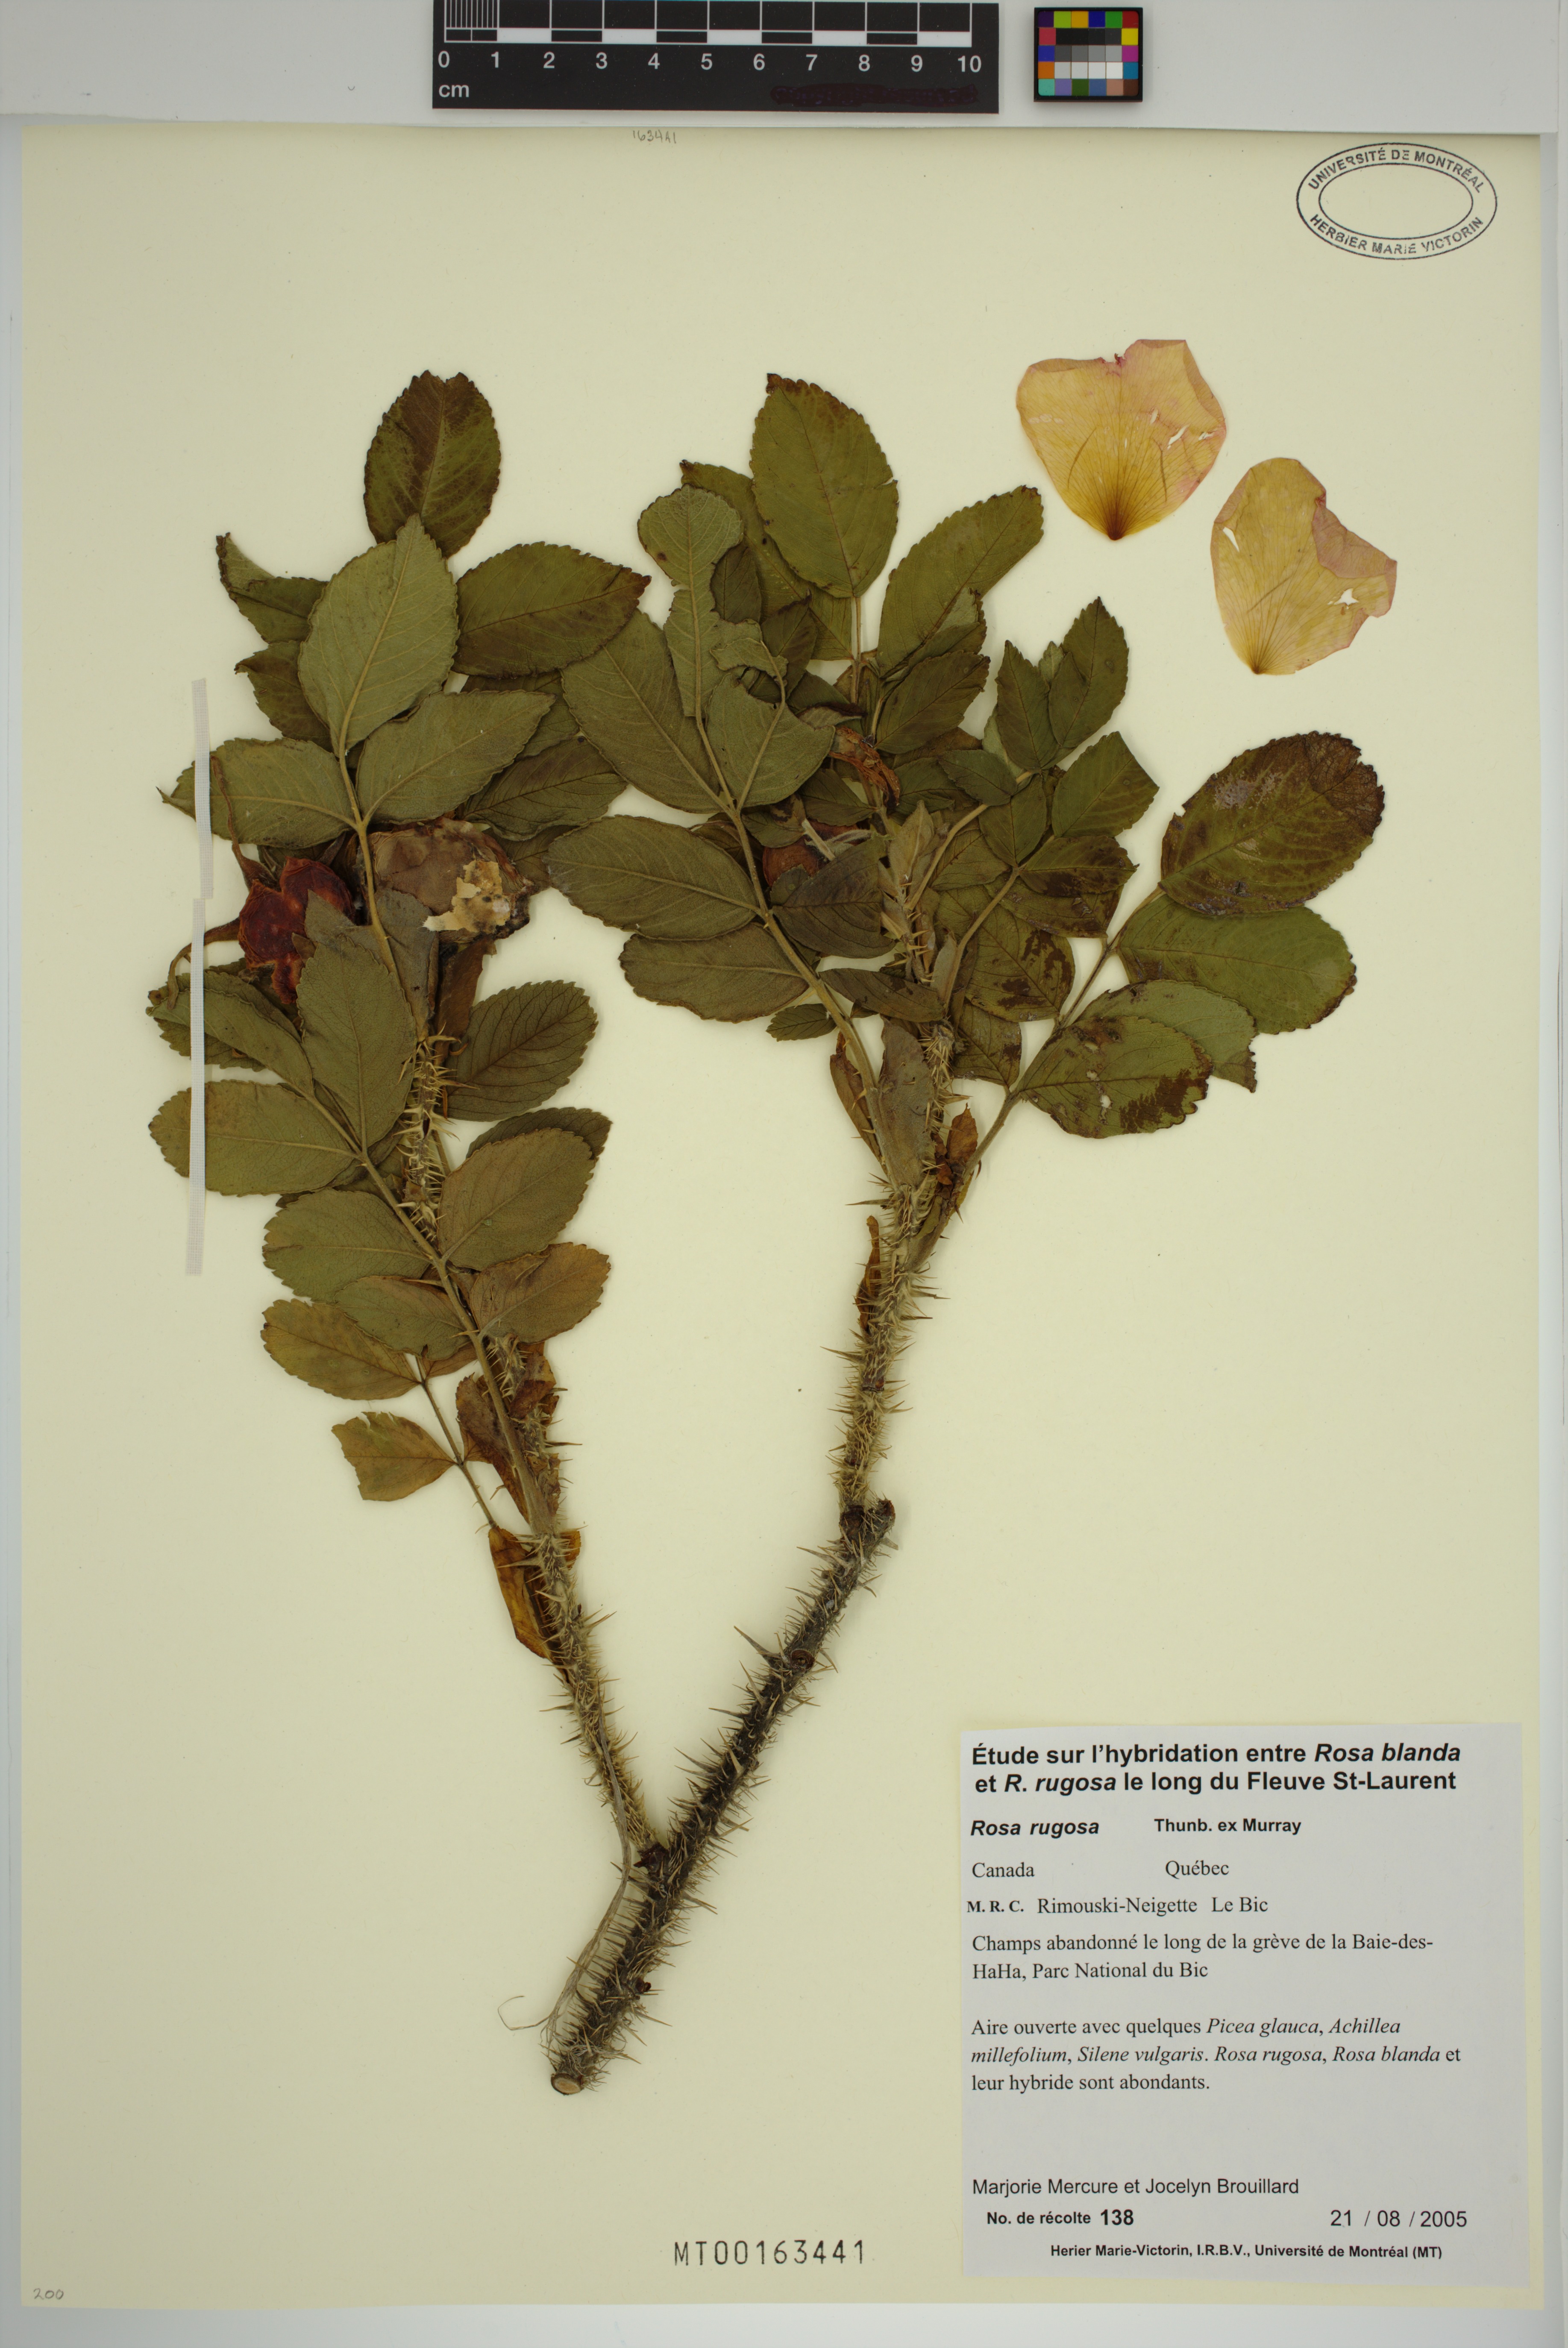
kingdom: Plantae
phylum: Tracheophyta
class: Magnoliopsida
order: Rosales
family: Rosaceae
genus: Rosa
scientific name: Rosa rugosa
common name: Japanese rose
